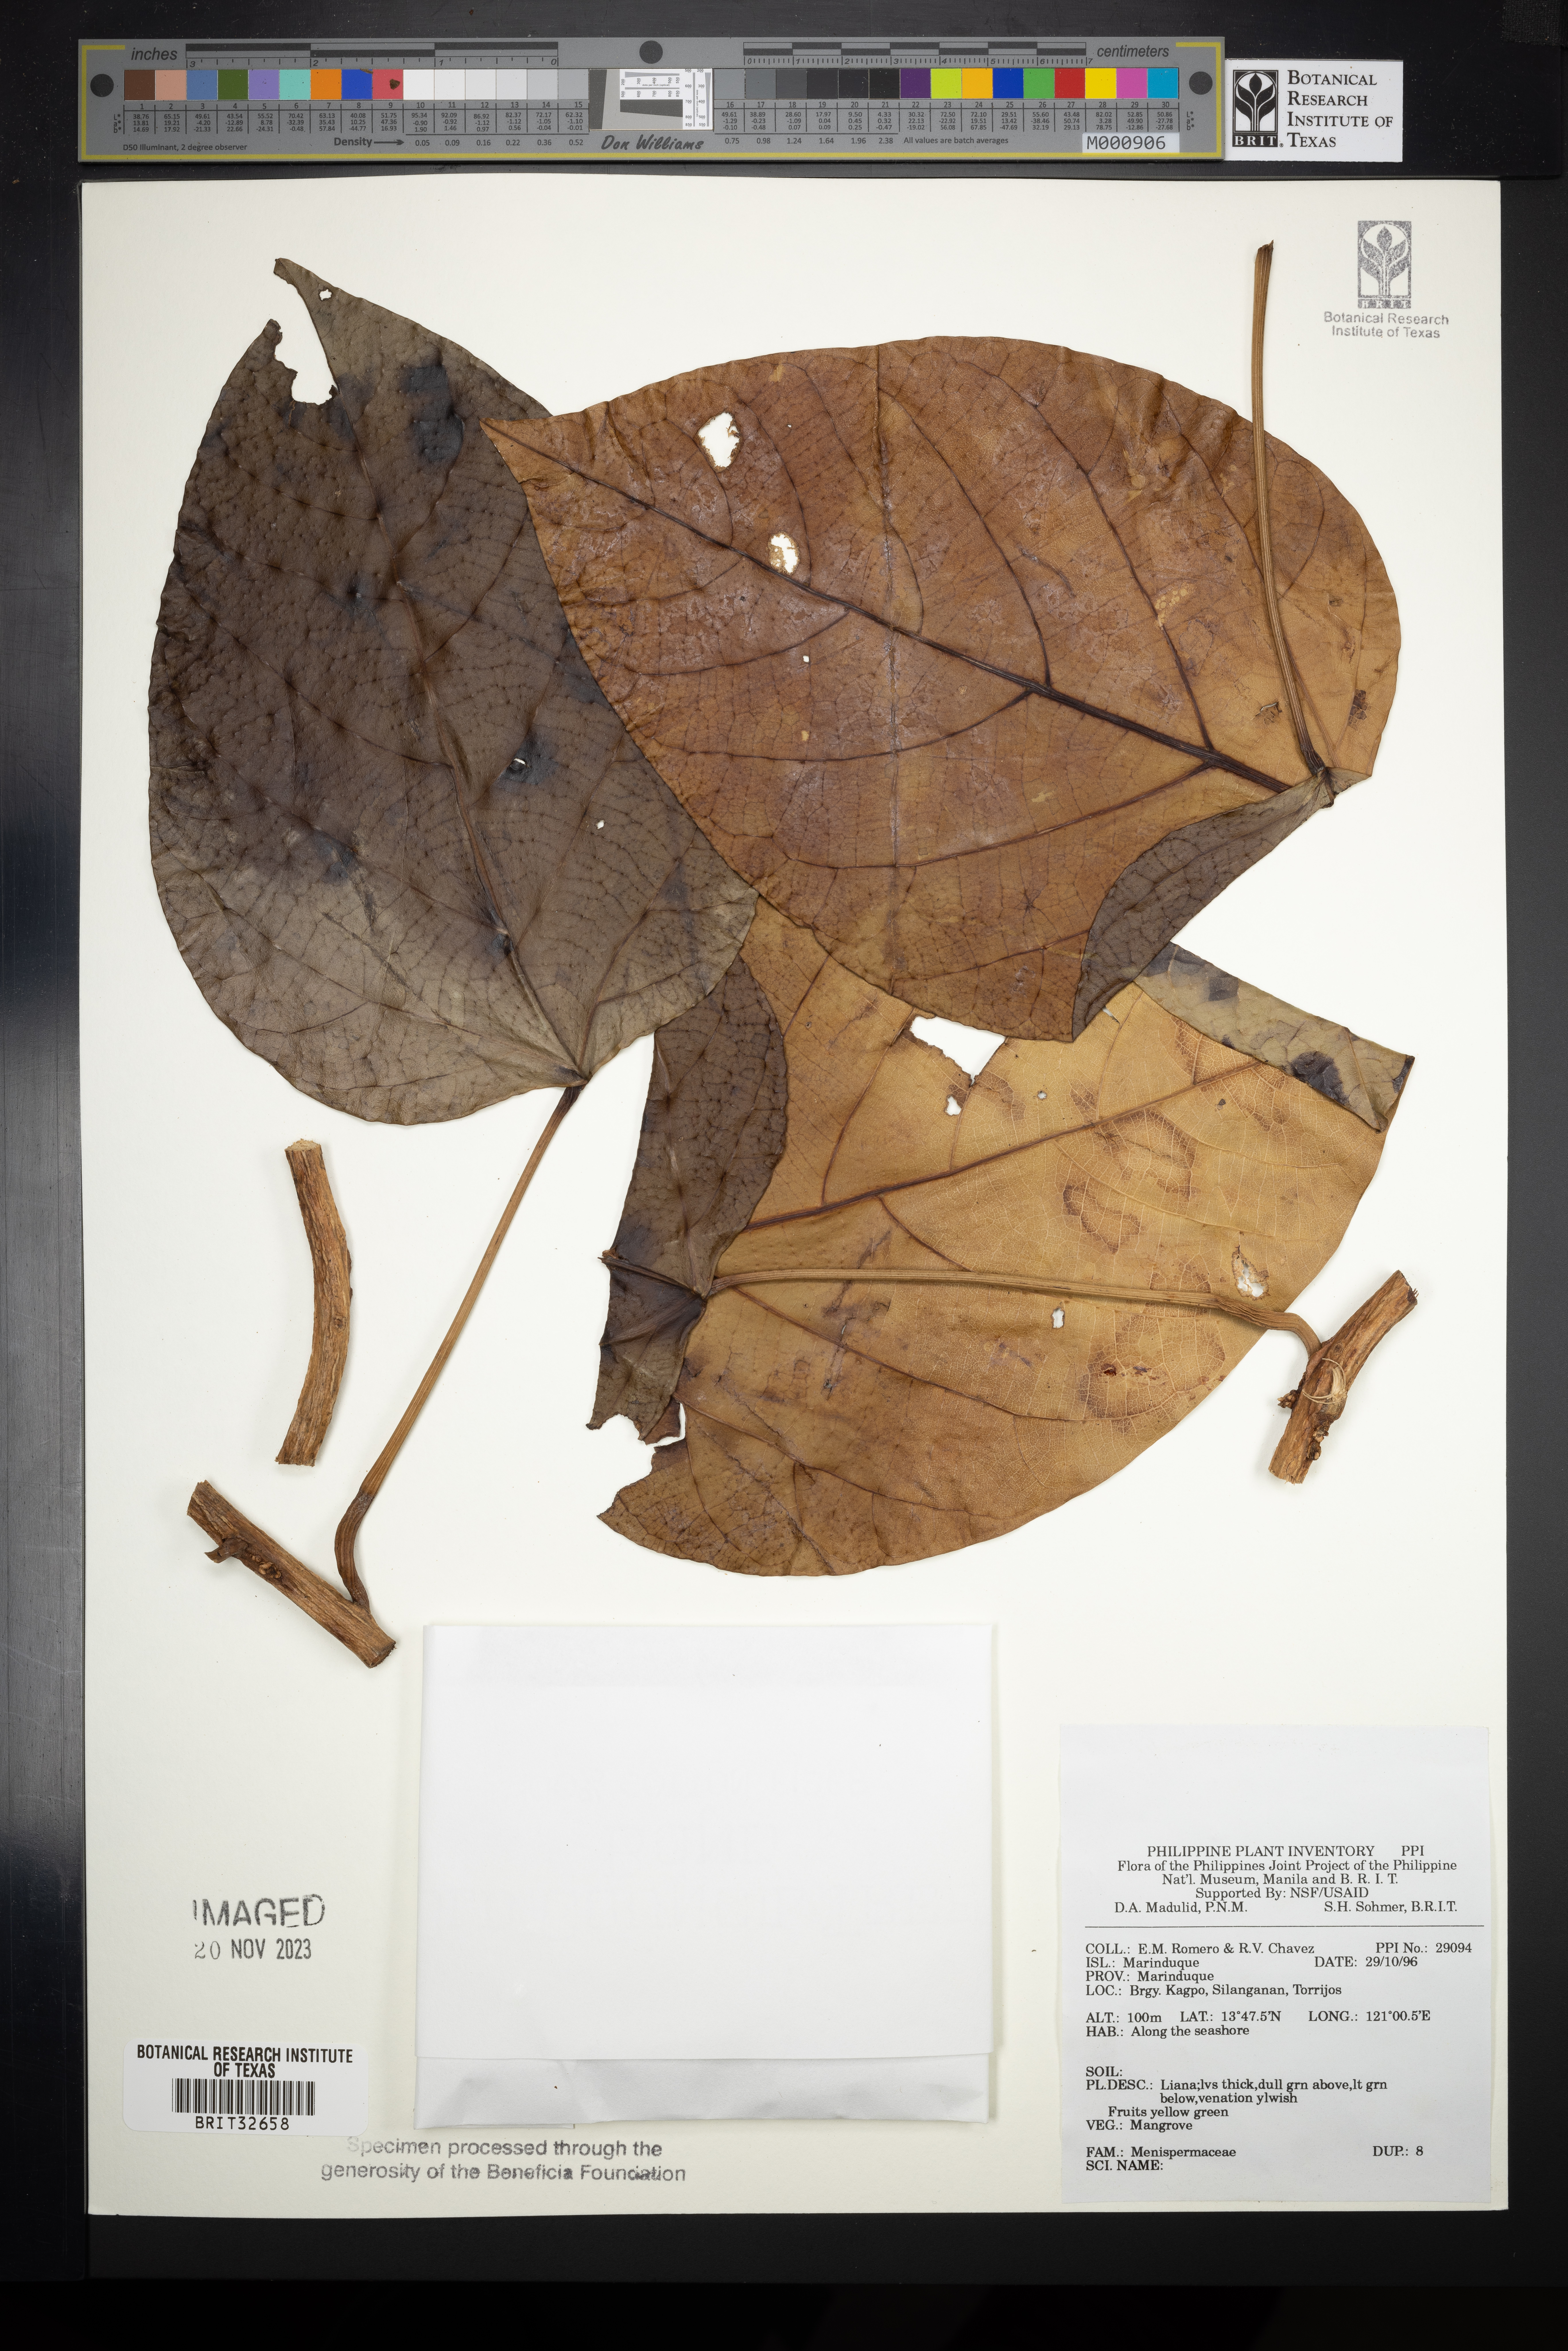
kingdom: Plantae
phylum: Tracheophyta
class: Magnoliopsida
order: Ranunculales
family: Menispermaceae
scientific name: Menispermaceae
